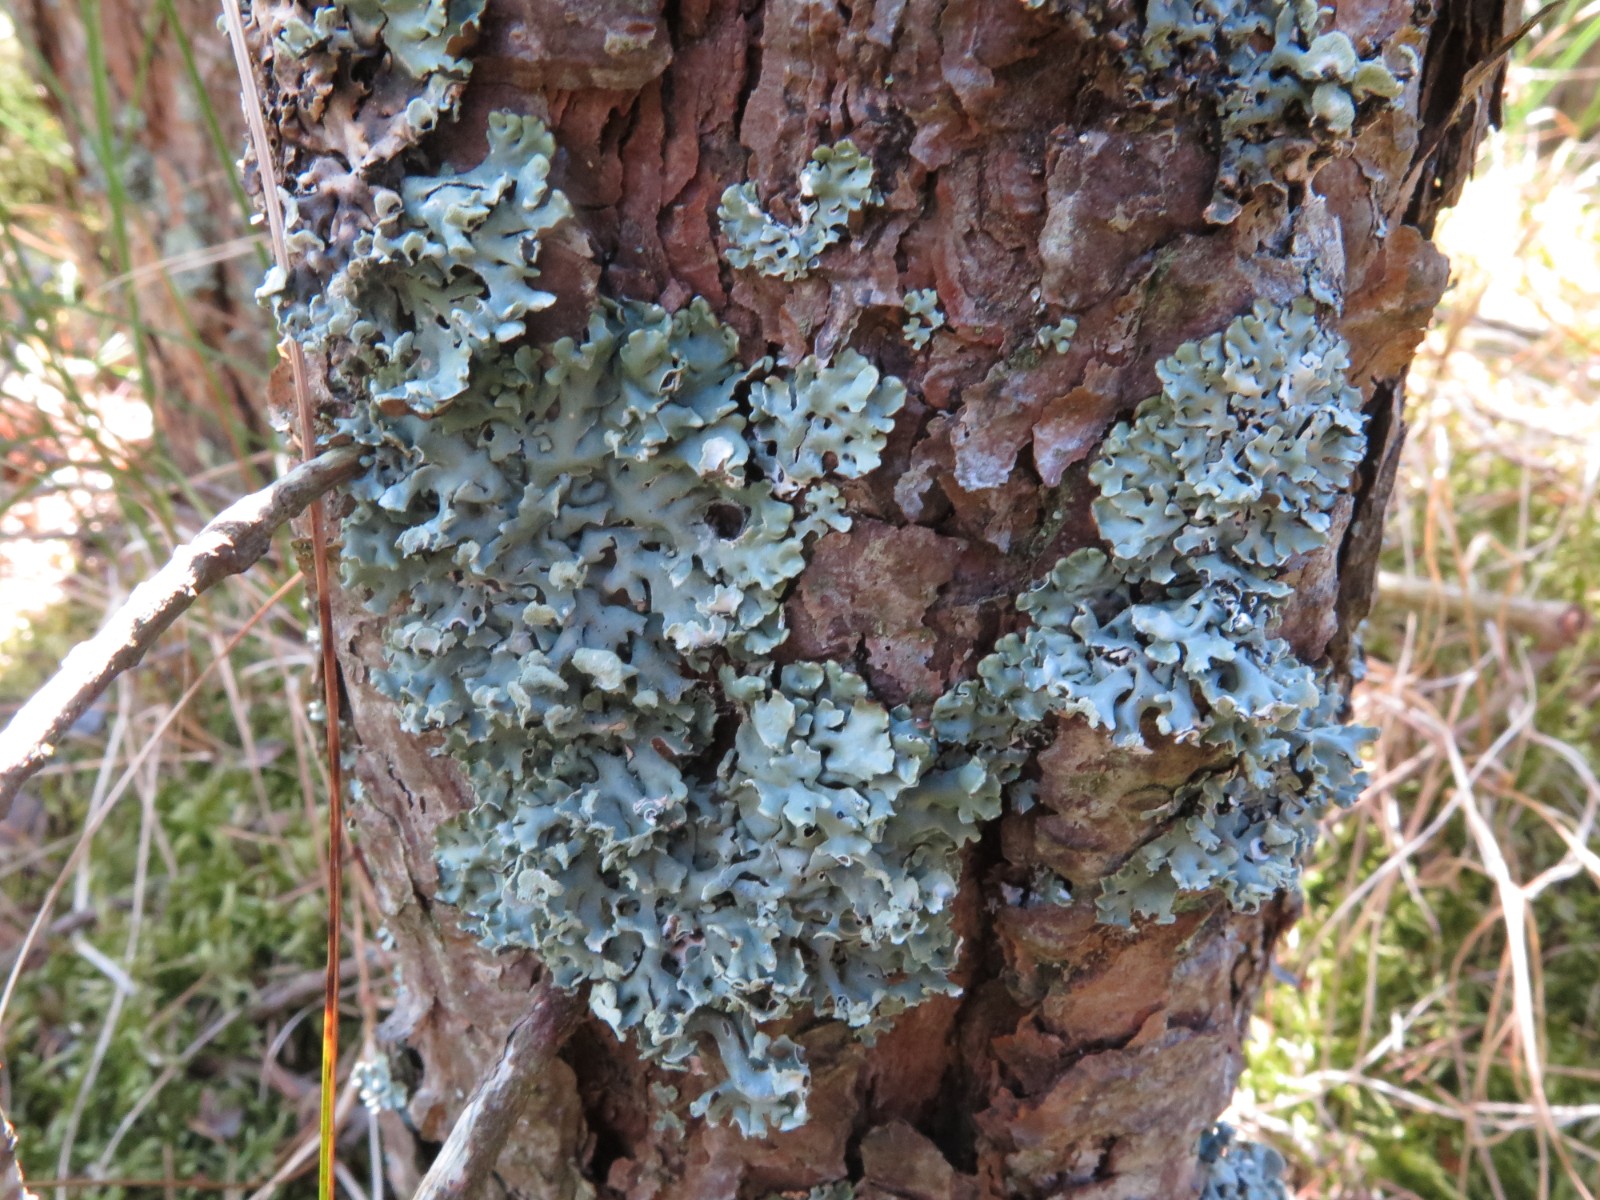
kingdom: Fungi
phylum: Ascomycota
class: Lecanoromycetes
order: Lecanorales
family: Parmeliaceae
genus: Hypogymnia
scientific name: Hypogymnia physodes
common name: almindelig kvistlav
